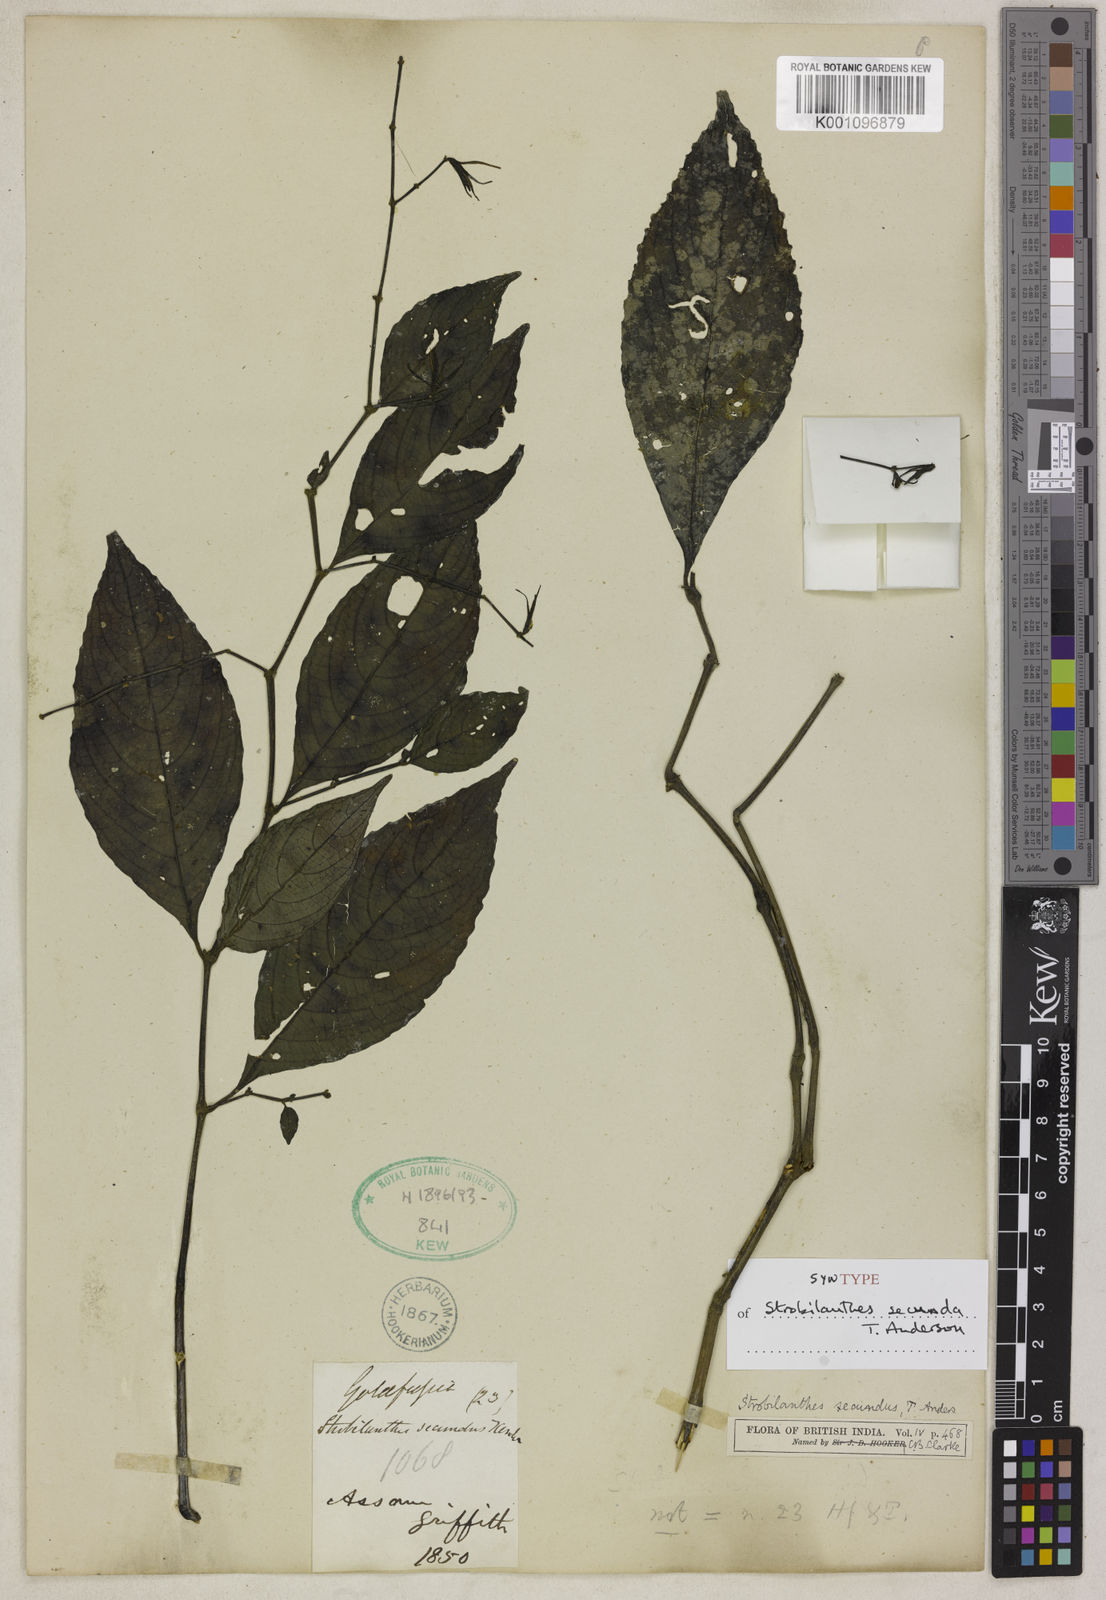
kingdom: Plantae
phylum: Tracheophyta
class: Magnoliopsida
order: Lamiales
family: Acanthaceae
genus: Strobilanthes
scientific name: Strobilanthes secunda
